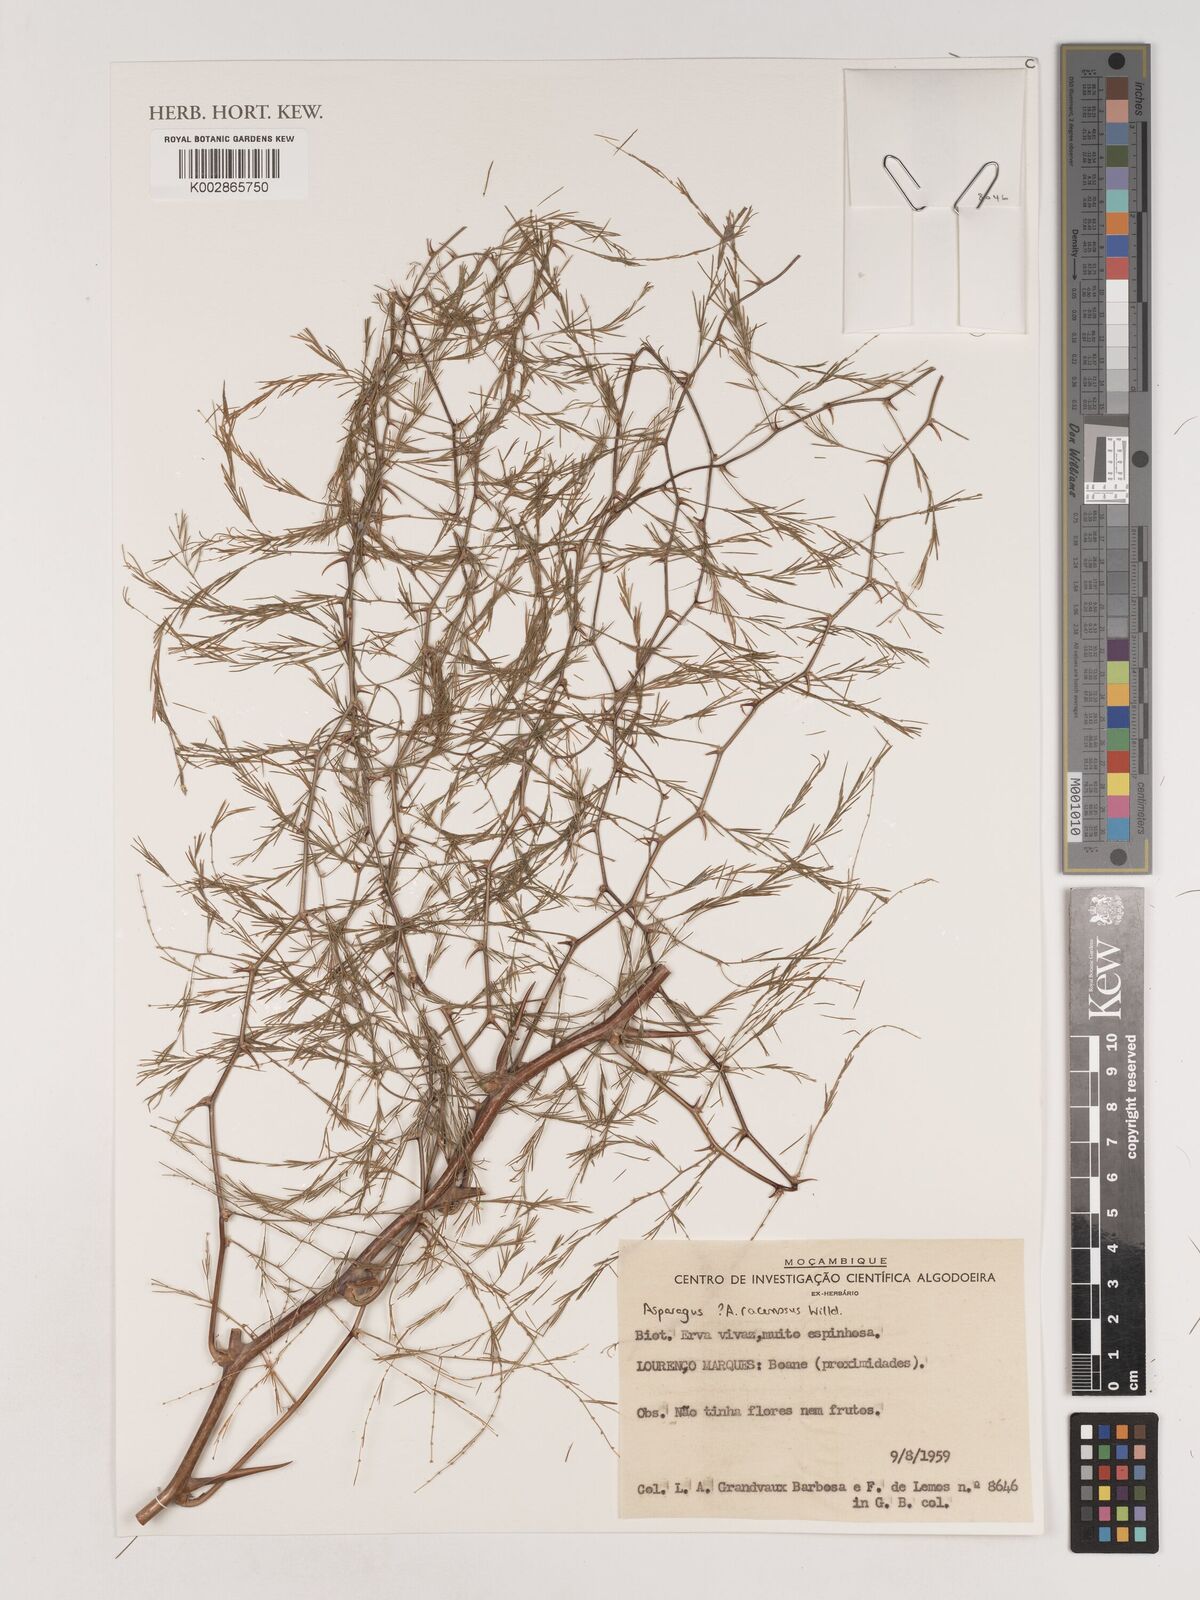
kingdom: Plantae
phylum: Tracheophyta
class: Liliopsida
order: Asparagales
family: Asparagaceae
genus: Asparagus
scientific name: Asparagus racemosus
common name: Asparagus-fern
